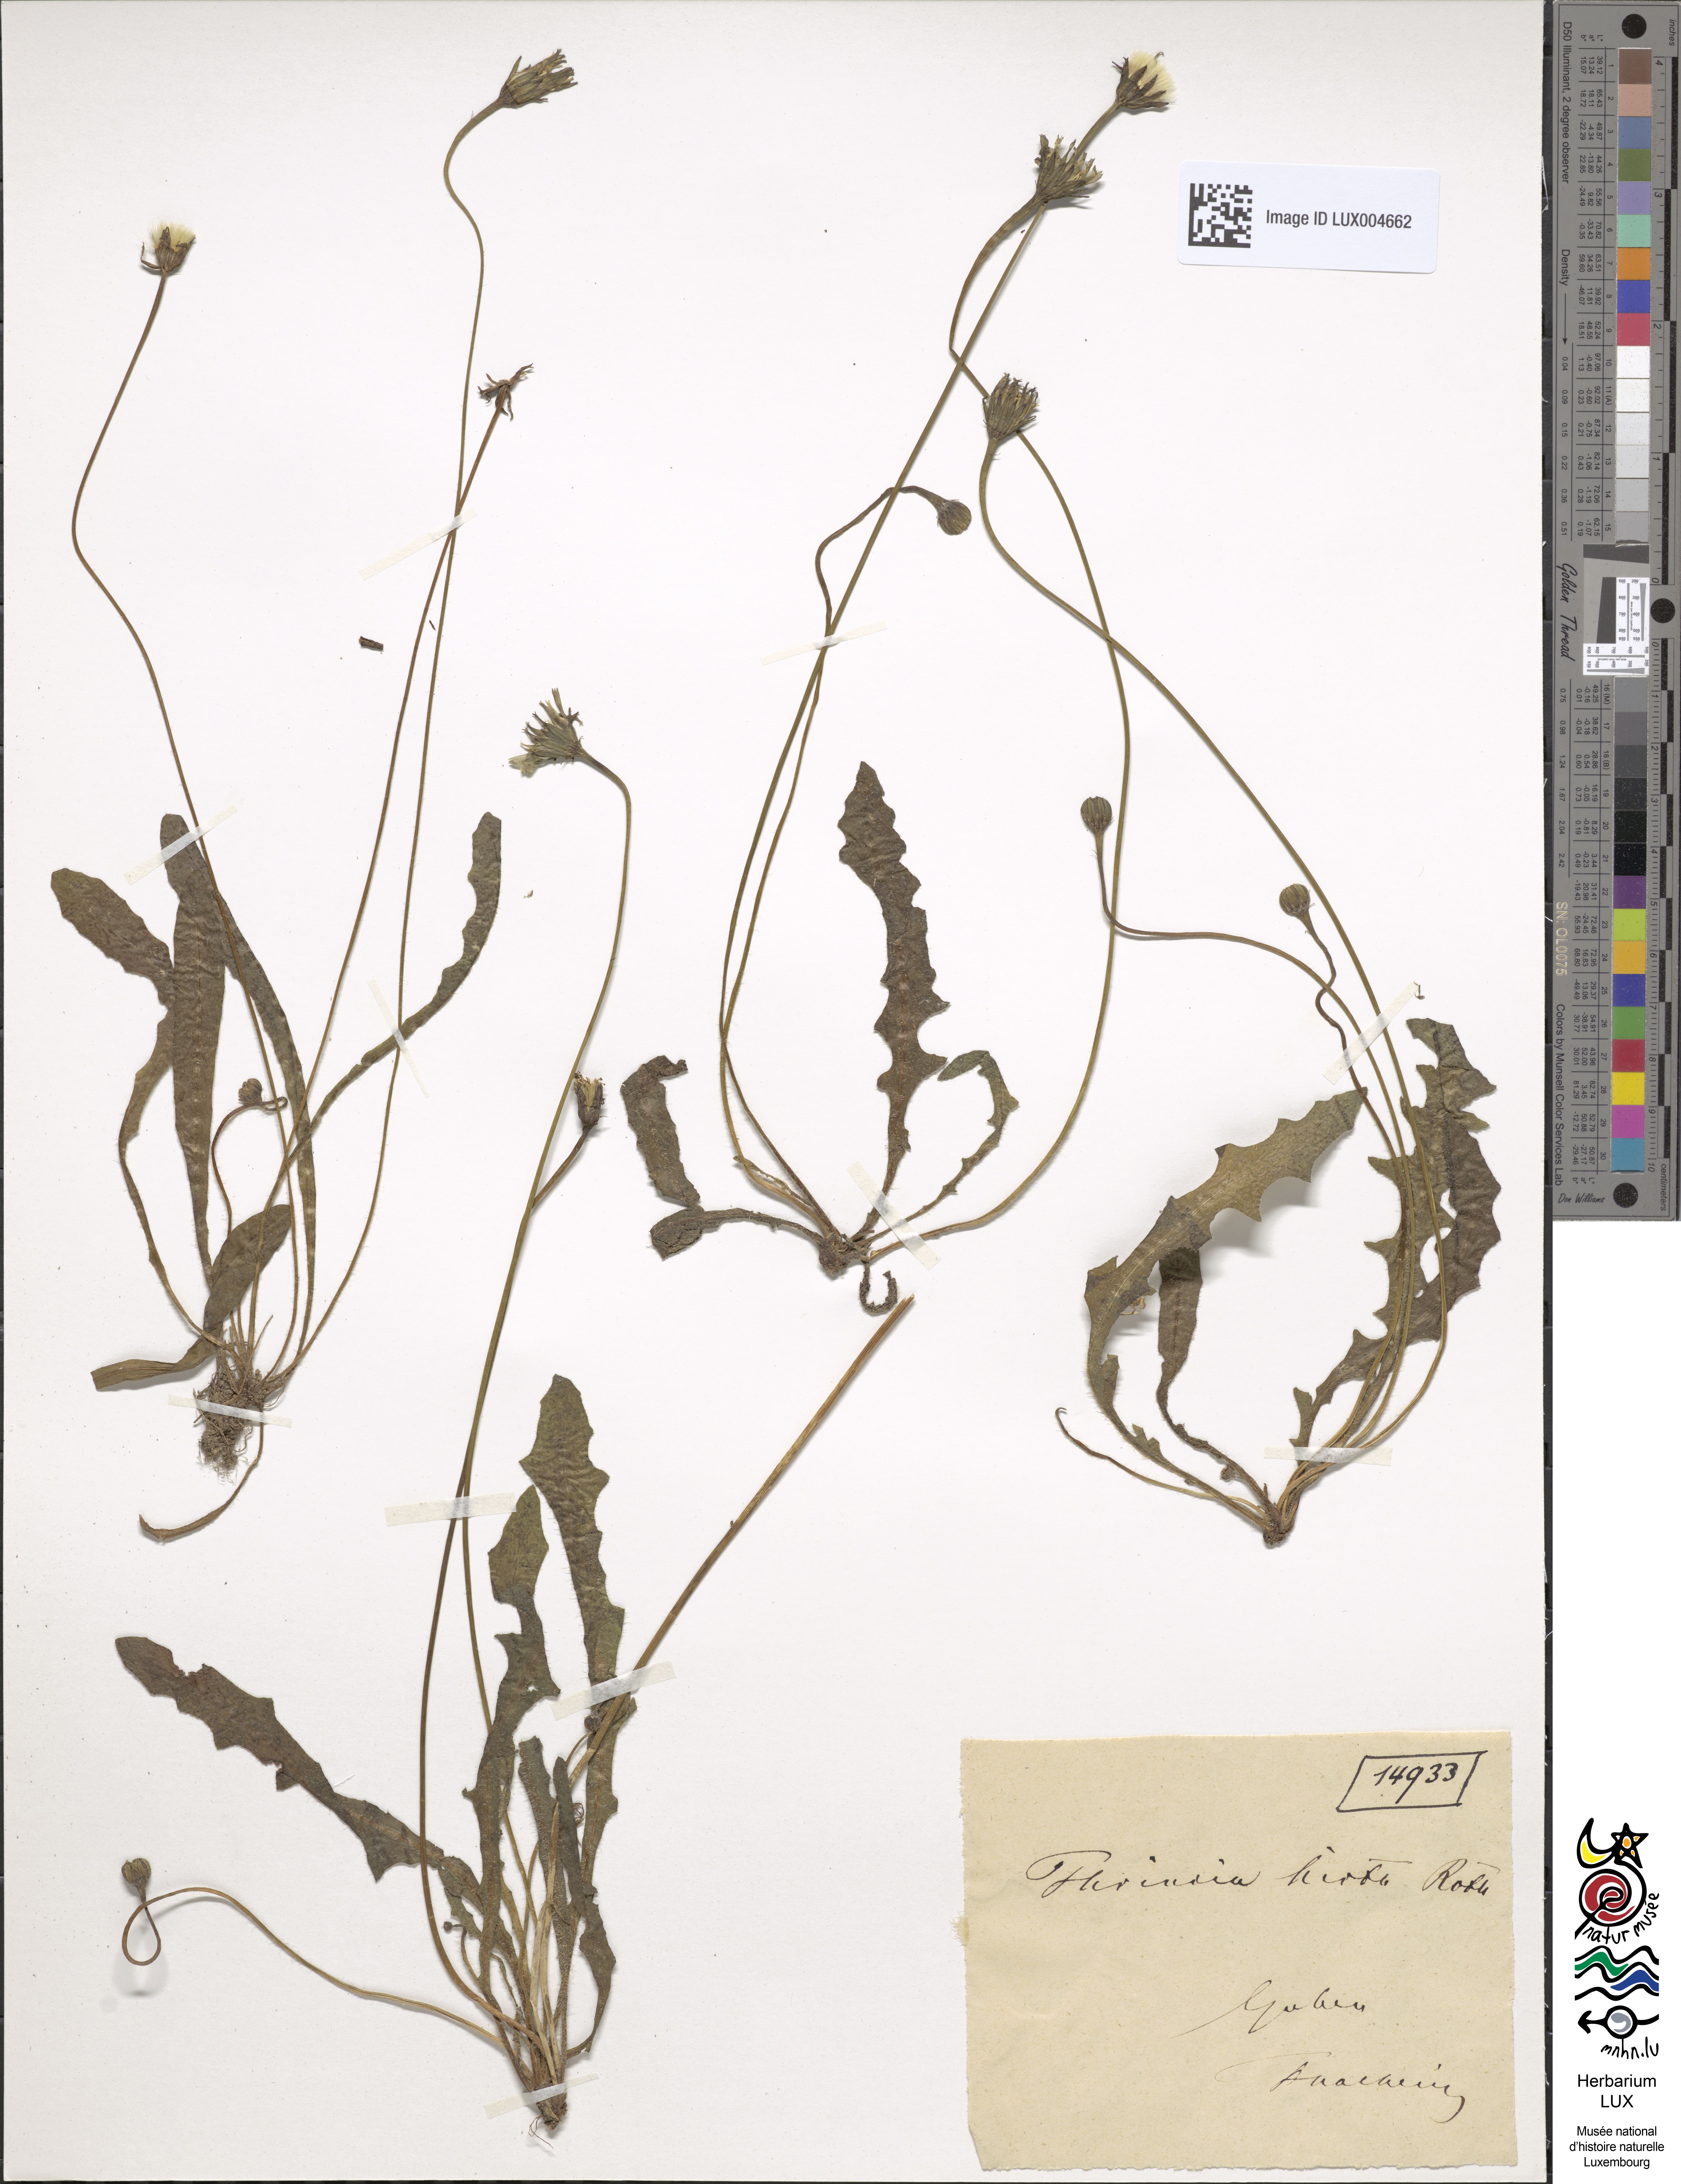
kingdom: Plantae
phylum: Tracheophyta
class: Magnoliopsida
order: Asterales
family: Asteraceae
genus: Leontodon
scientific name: Leontodon hirtus
